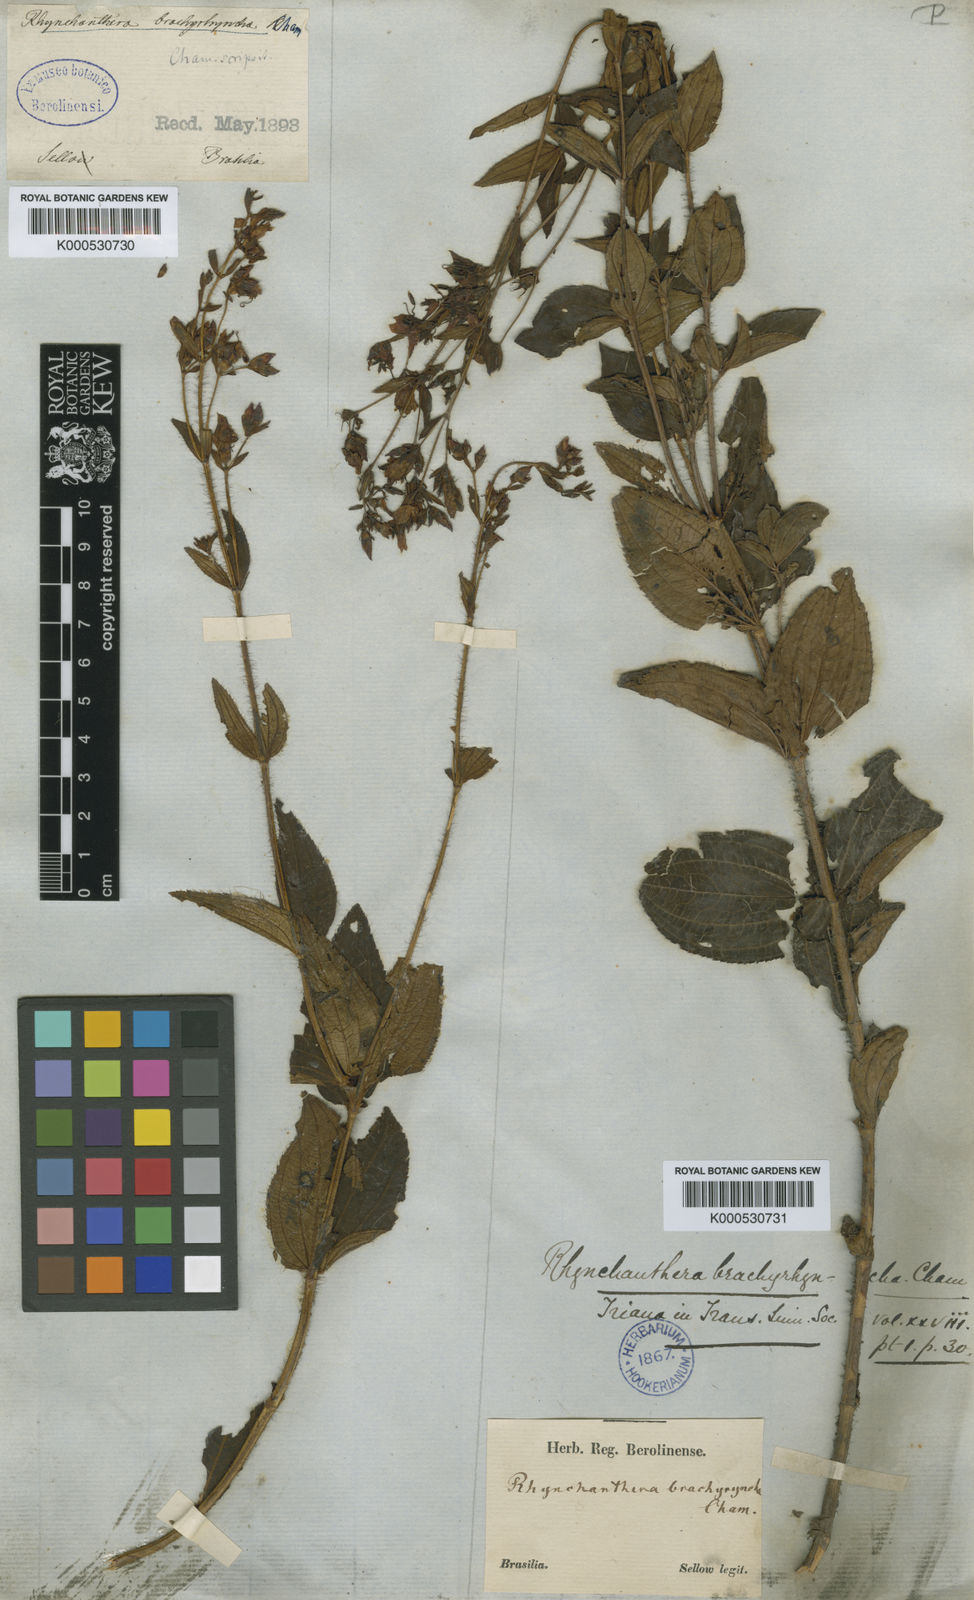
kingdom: Plantae
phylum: Tracheophyta
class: Magnoliopsida
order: Myrtales
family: Melastomataceae
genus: Rhynchanthera
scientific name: Rhynchanthera brachyrhyncha
